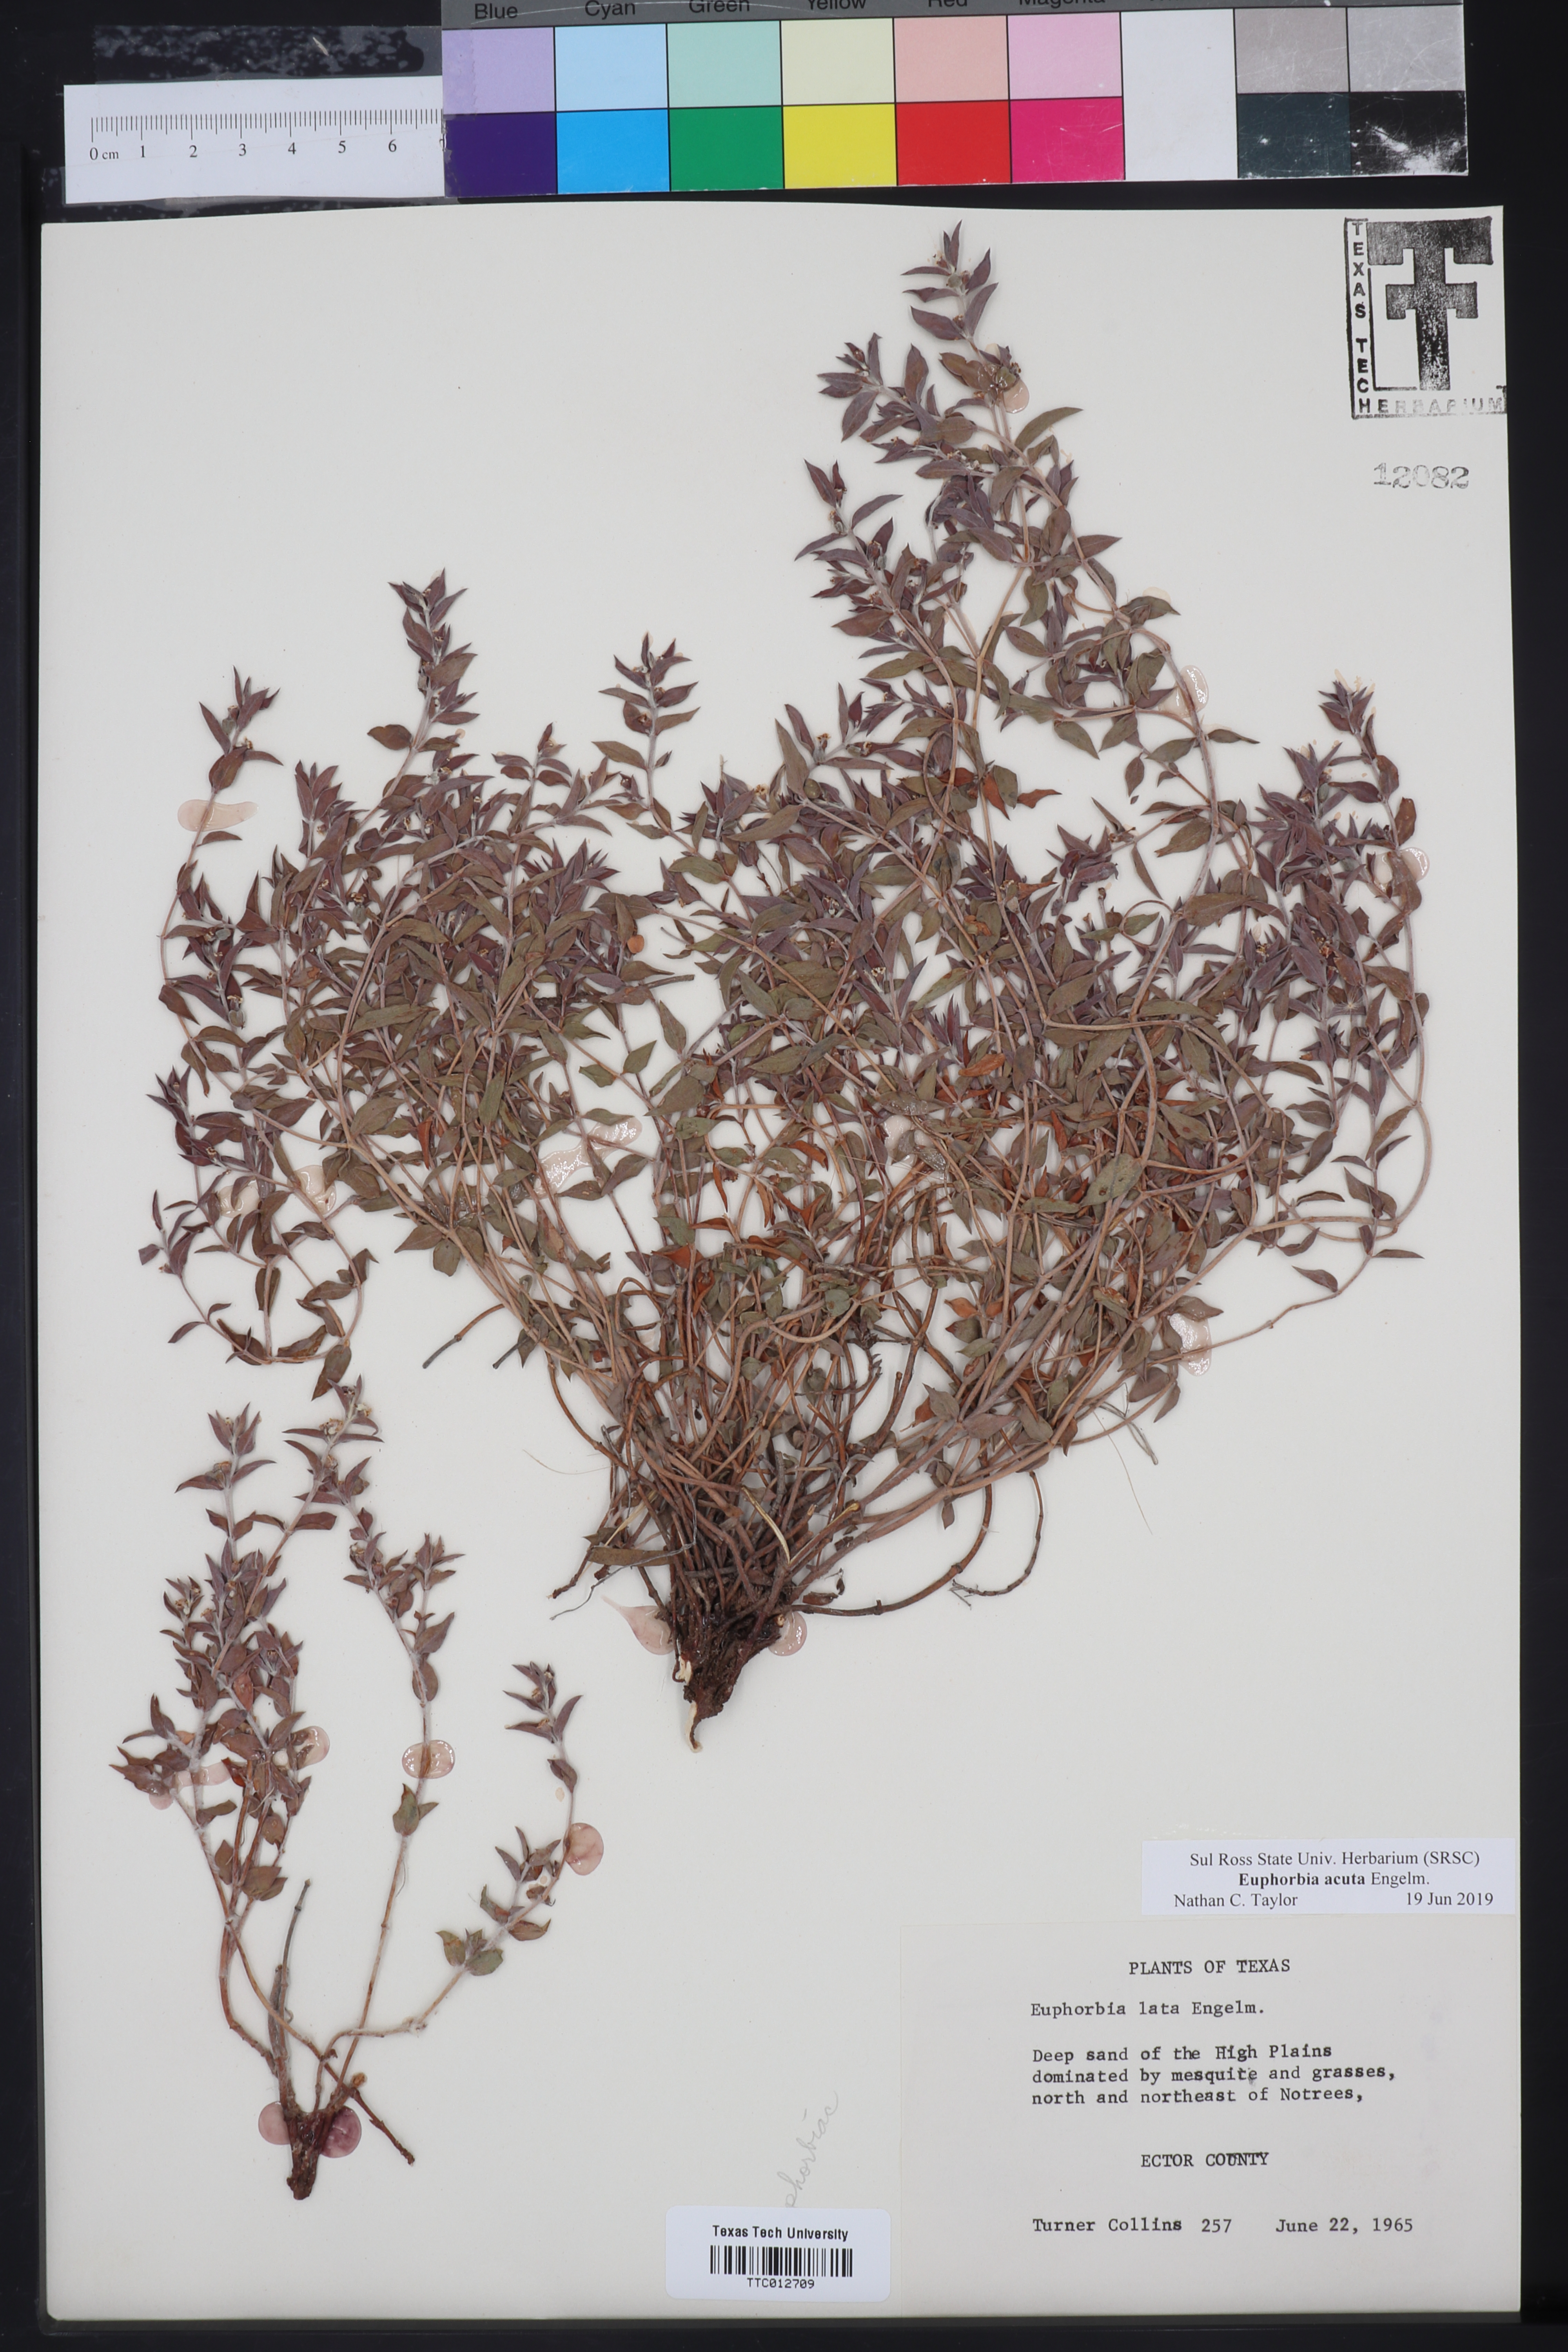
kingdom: Plantae
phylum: Tracheophyta
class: Magnoliopsida
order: Malpighiales
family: Euphorbiaceae
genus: Euphorbia
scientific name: Euphorbia acuta
